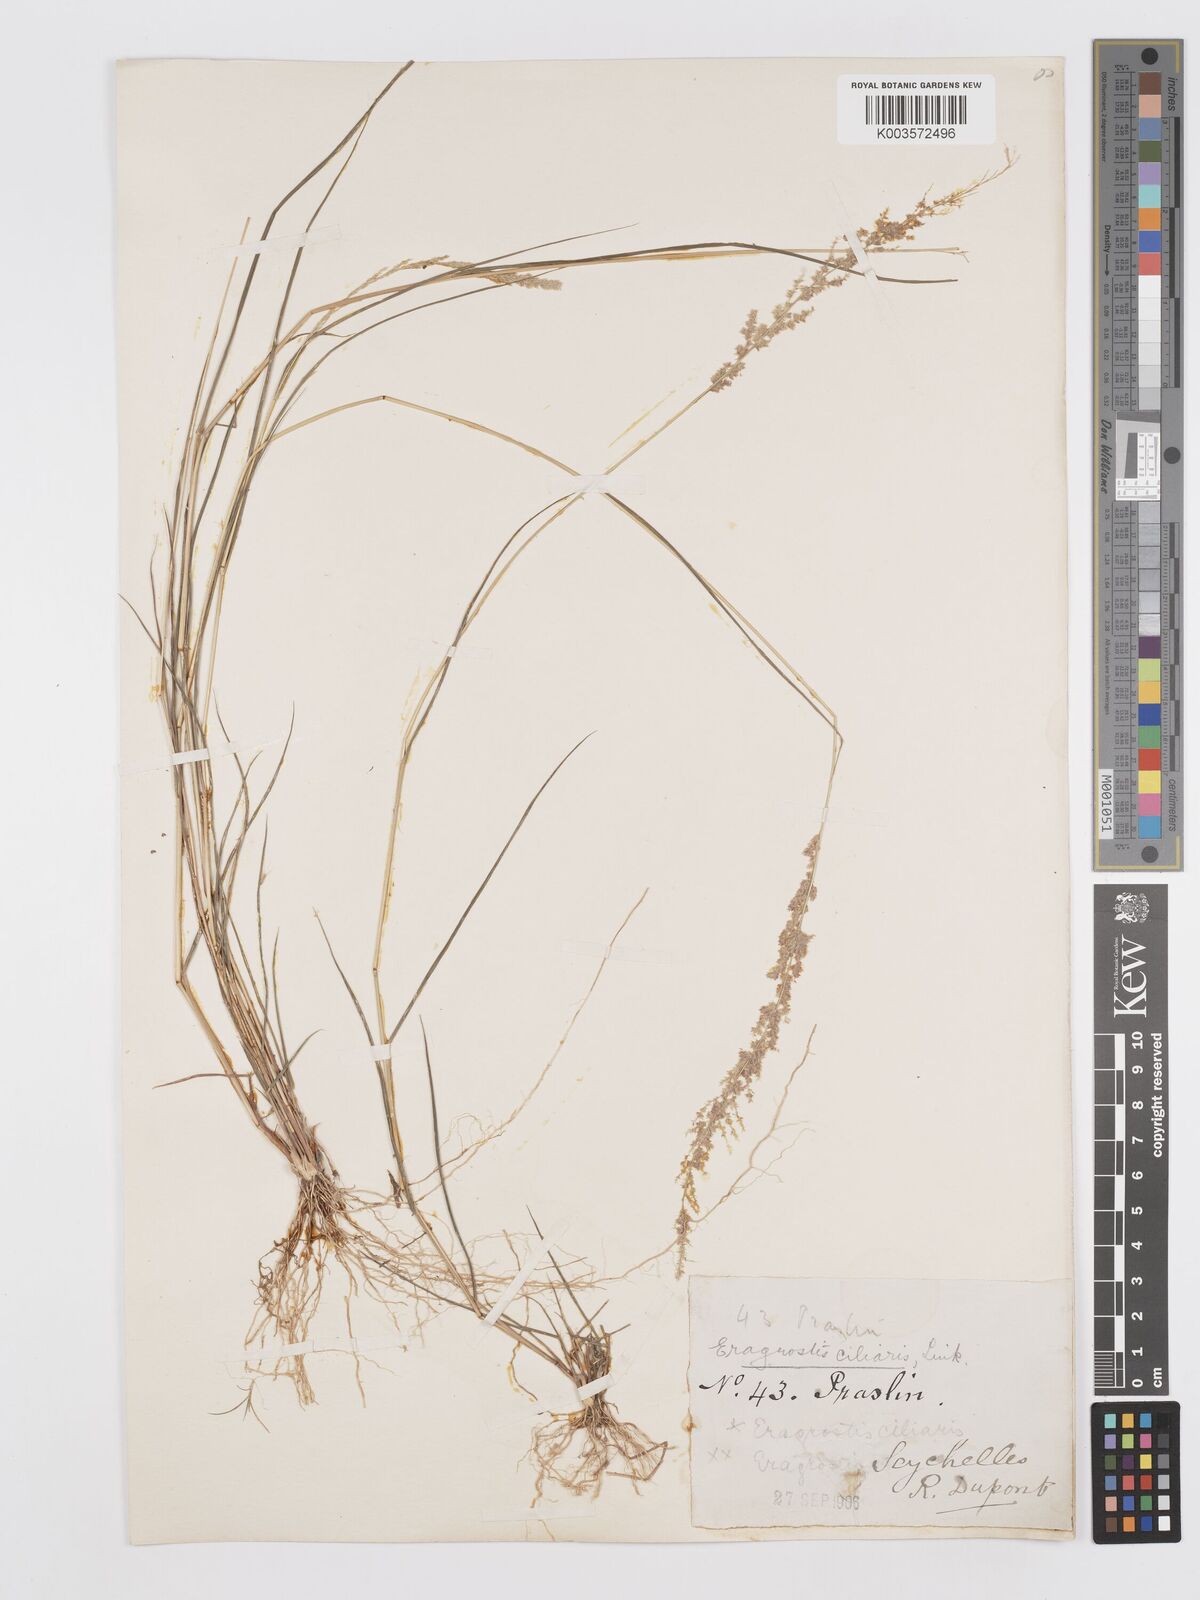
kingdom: Plantae
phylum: Tracheophyta
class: Liliopsida
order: Poales
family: Poaceae
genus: Eragrostis
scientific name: Eragrostis ciliaris
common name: Gophertail lovegrass
